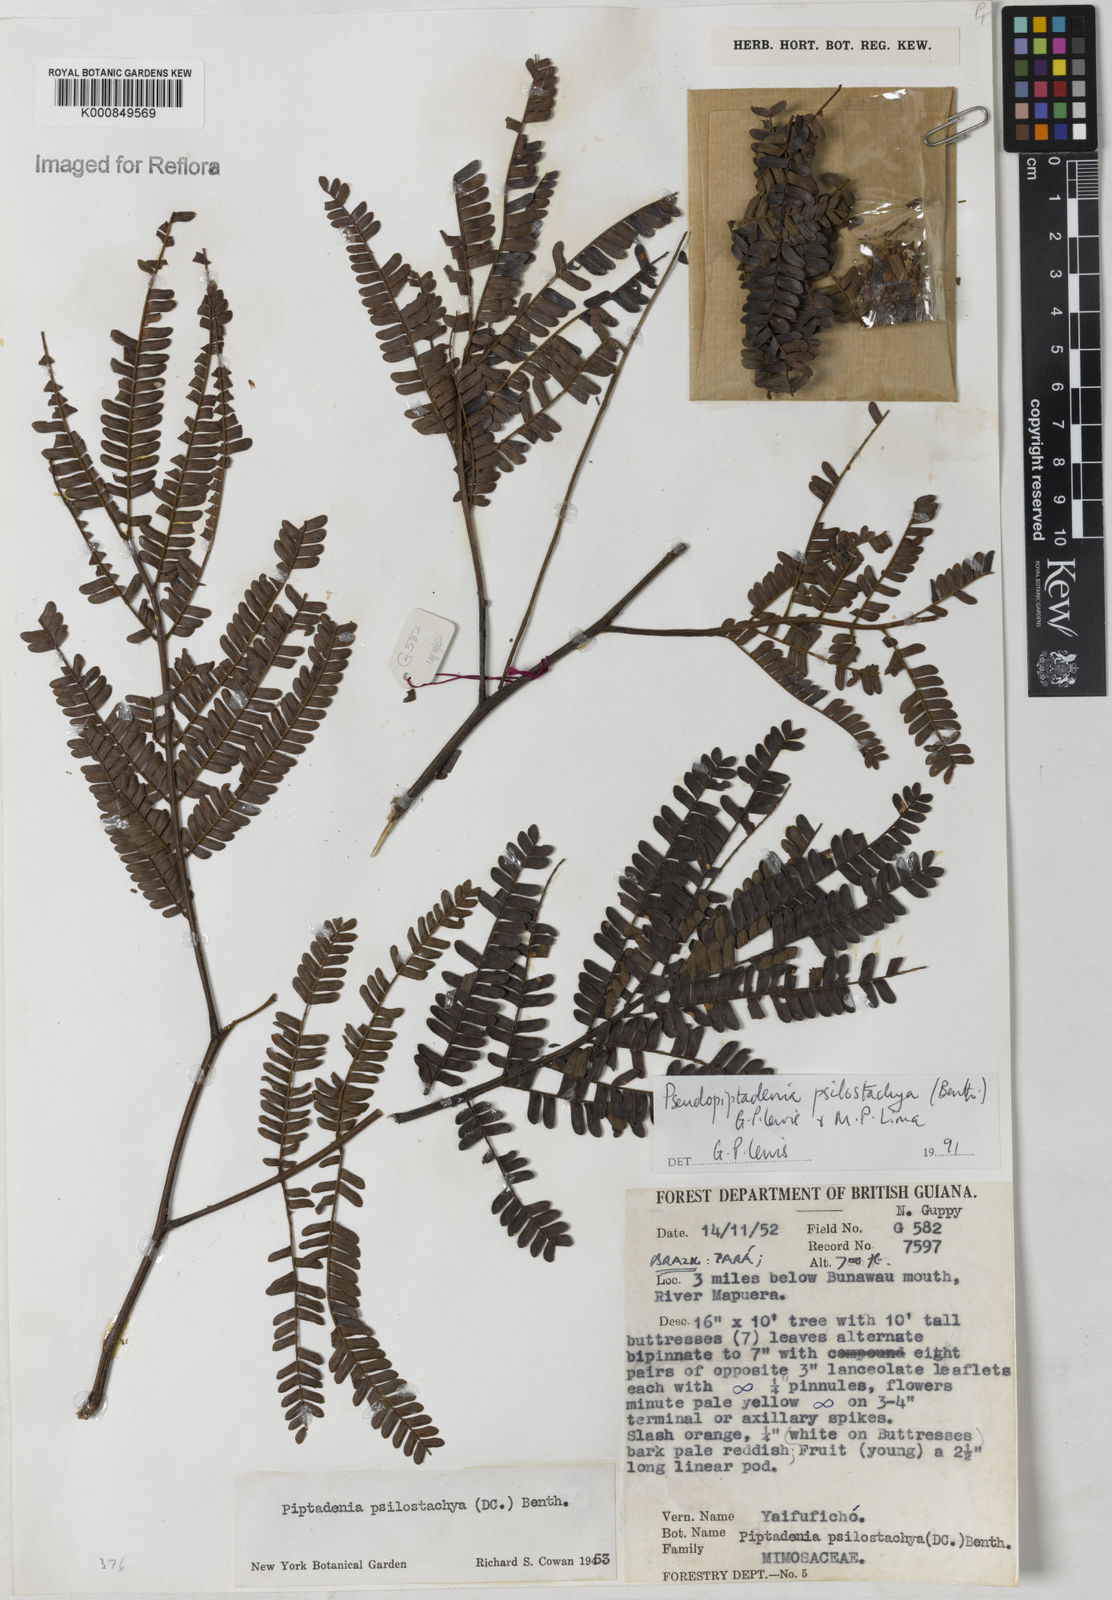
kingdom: Plantae
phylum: Tracheophyta
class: Magnoliopsida
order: Fabales
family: Fabaceae
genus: Pseudopiptadenia
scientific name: Pseudopiptadenia psilostachya
